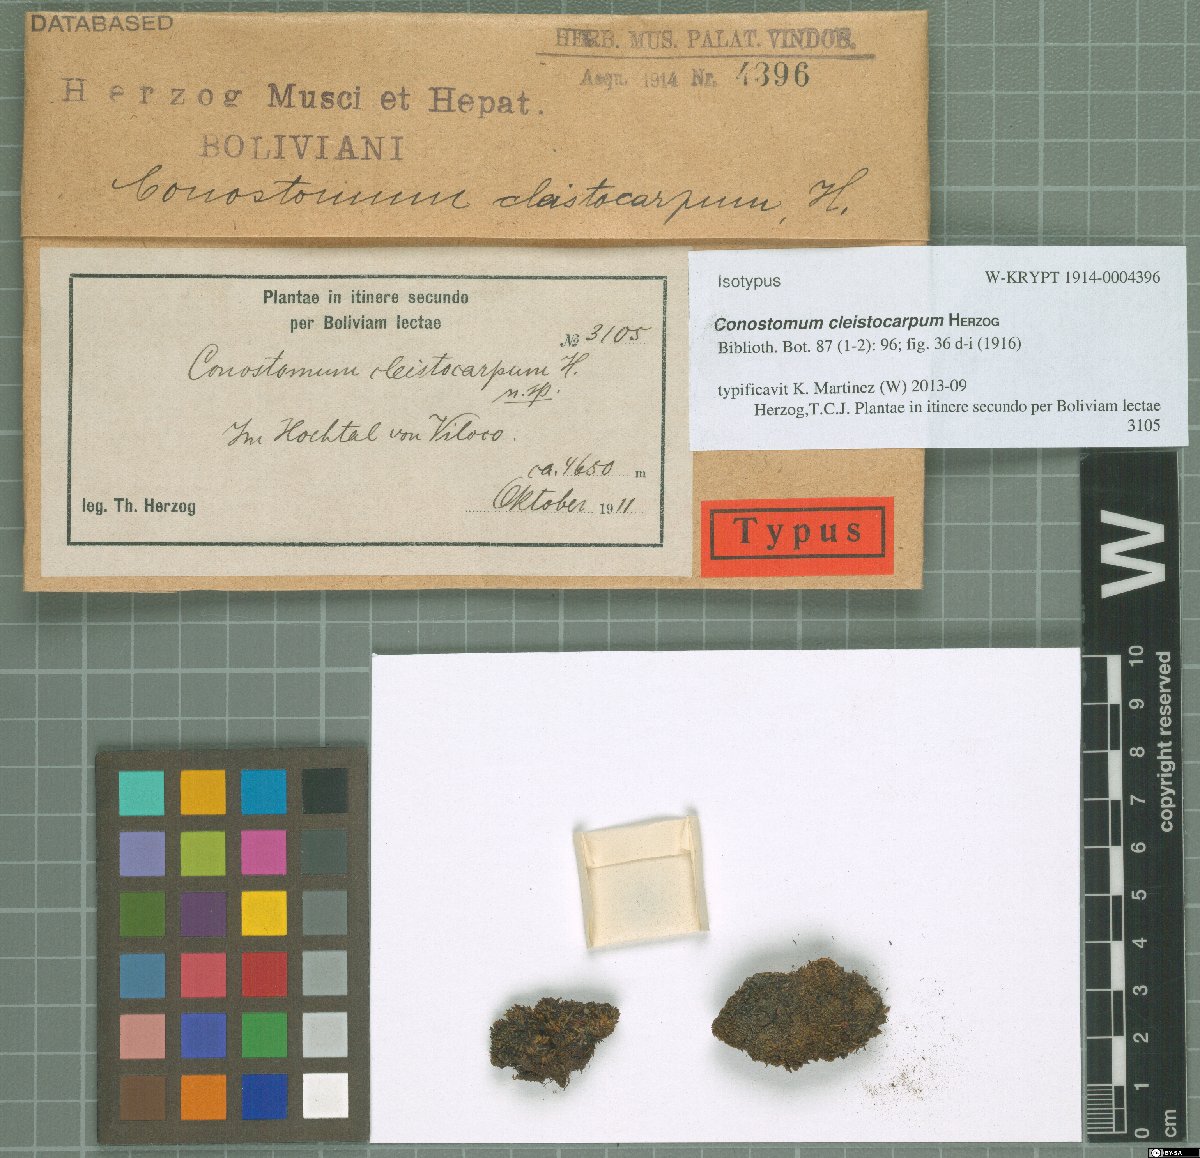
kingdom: Plantae
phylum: Bryophyta
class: Bryopsida
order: Bartramiales
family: Bartramiaceae
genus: Conostomum
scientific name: Conostomum cleistocarpum
